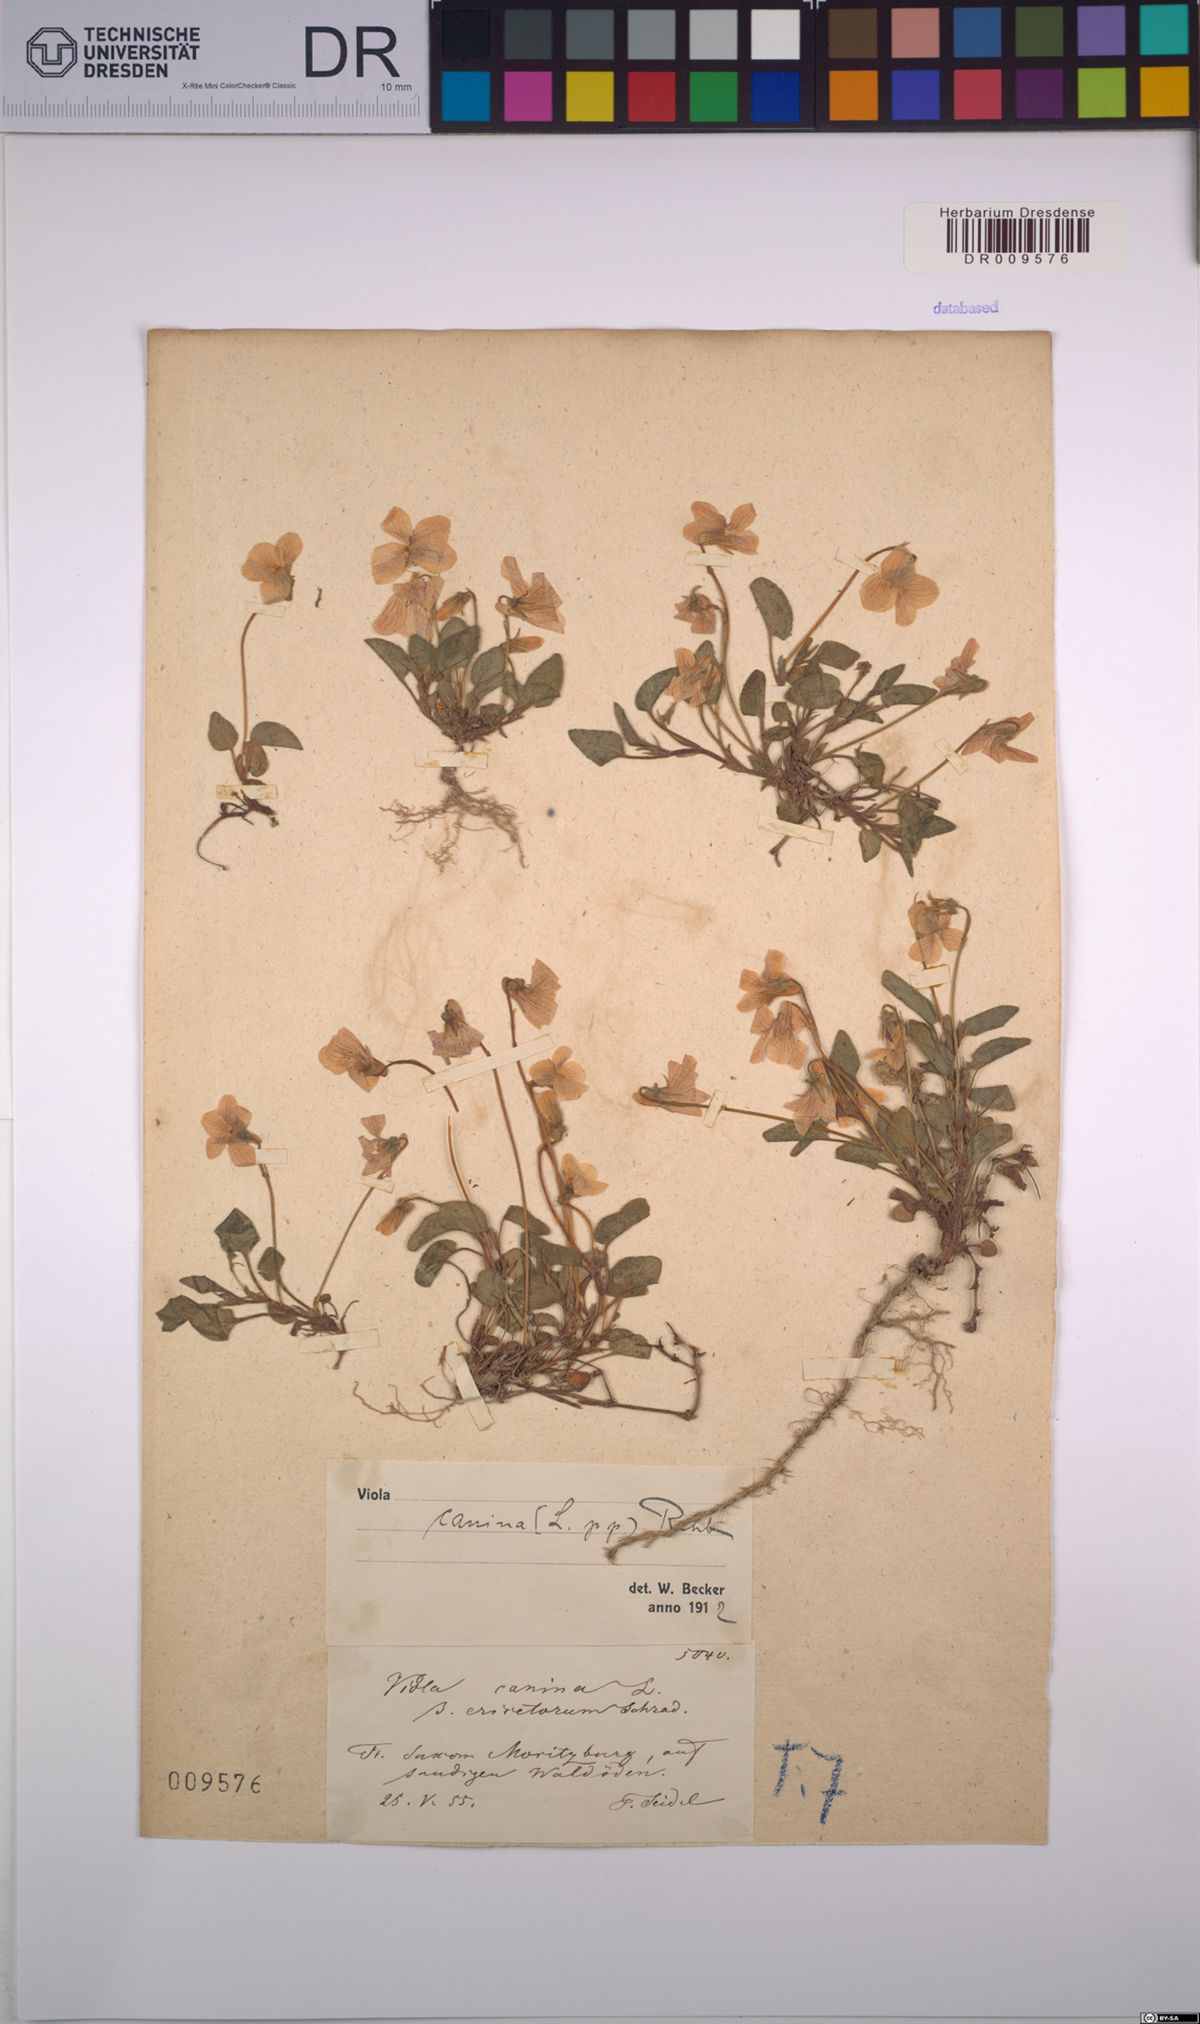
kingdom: Plantae
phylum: Tracheophyta
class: Magnoliopsida
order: Malpighiales
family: Violaceae
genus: Viola
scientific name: Viola canina
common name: Heath dog-violet
